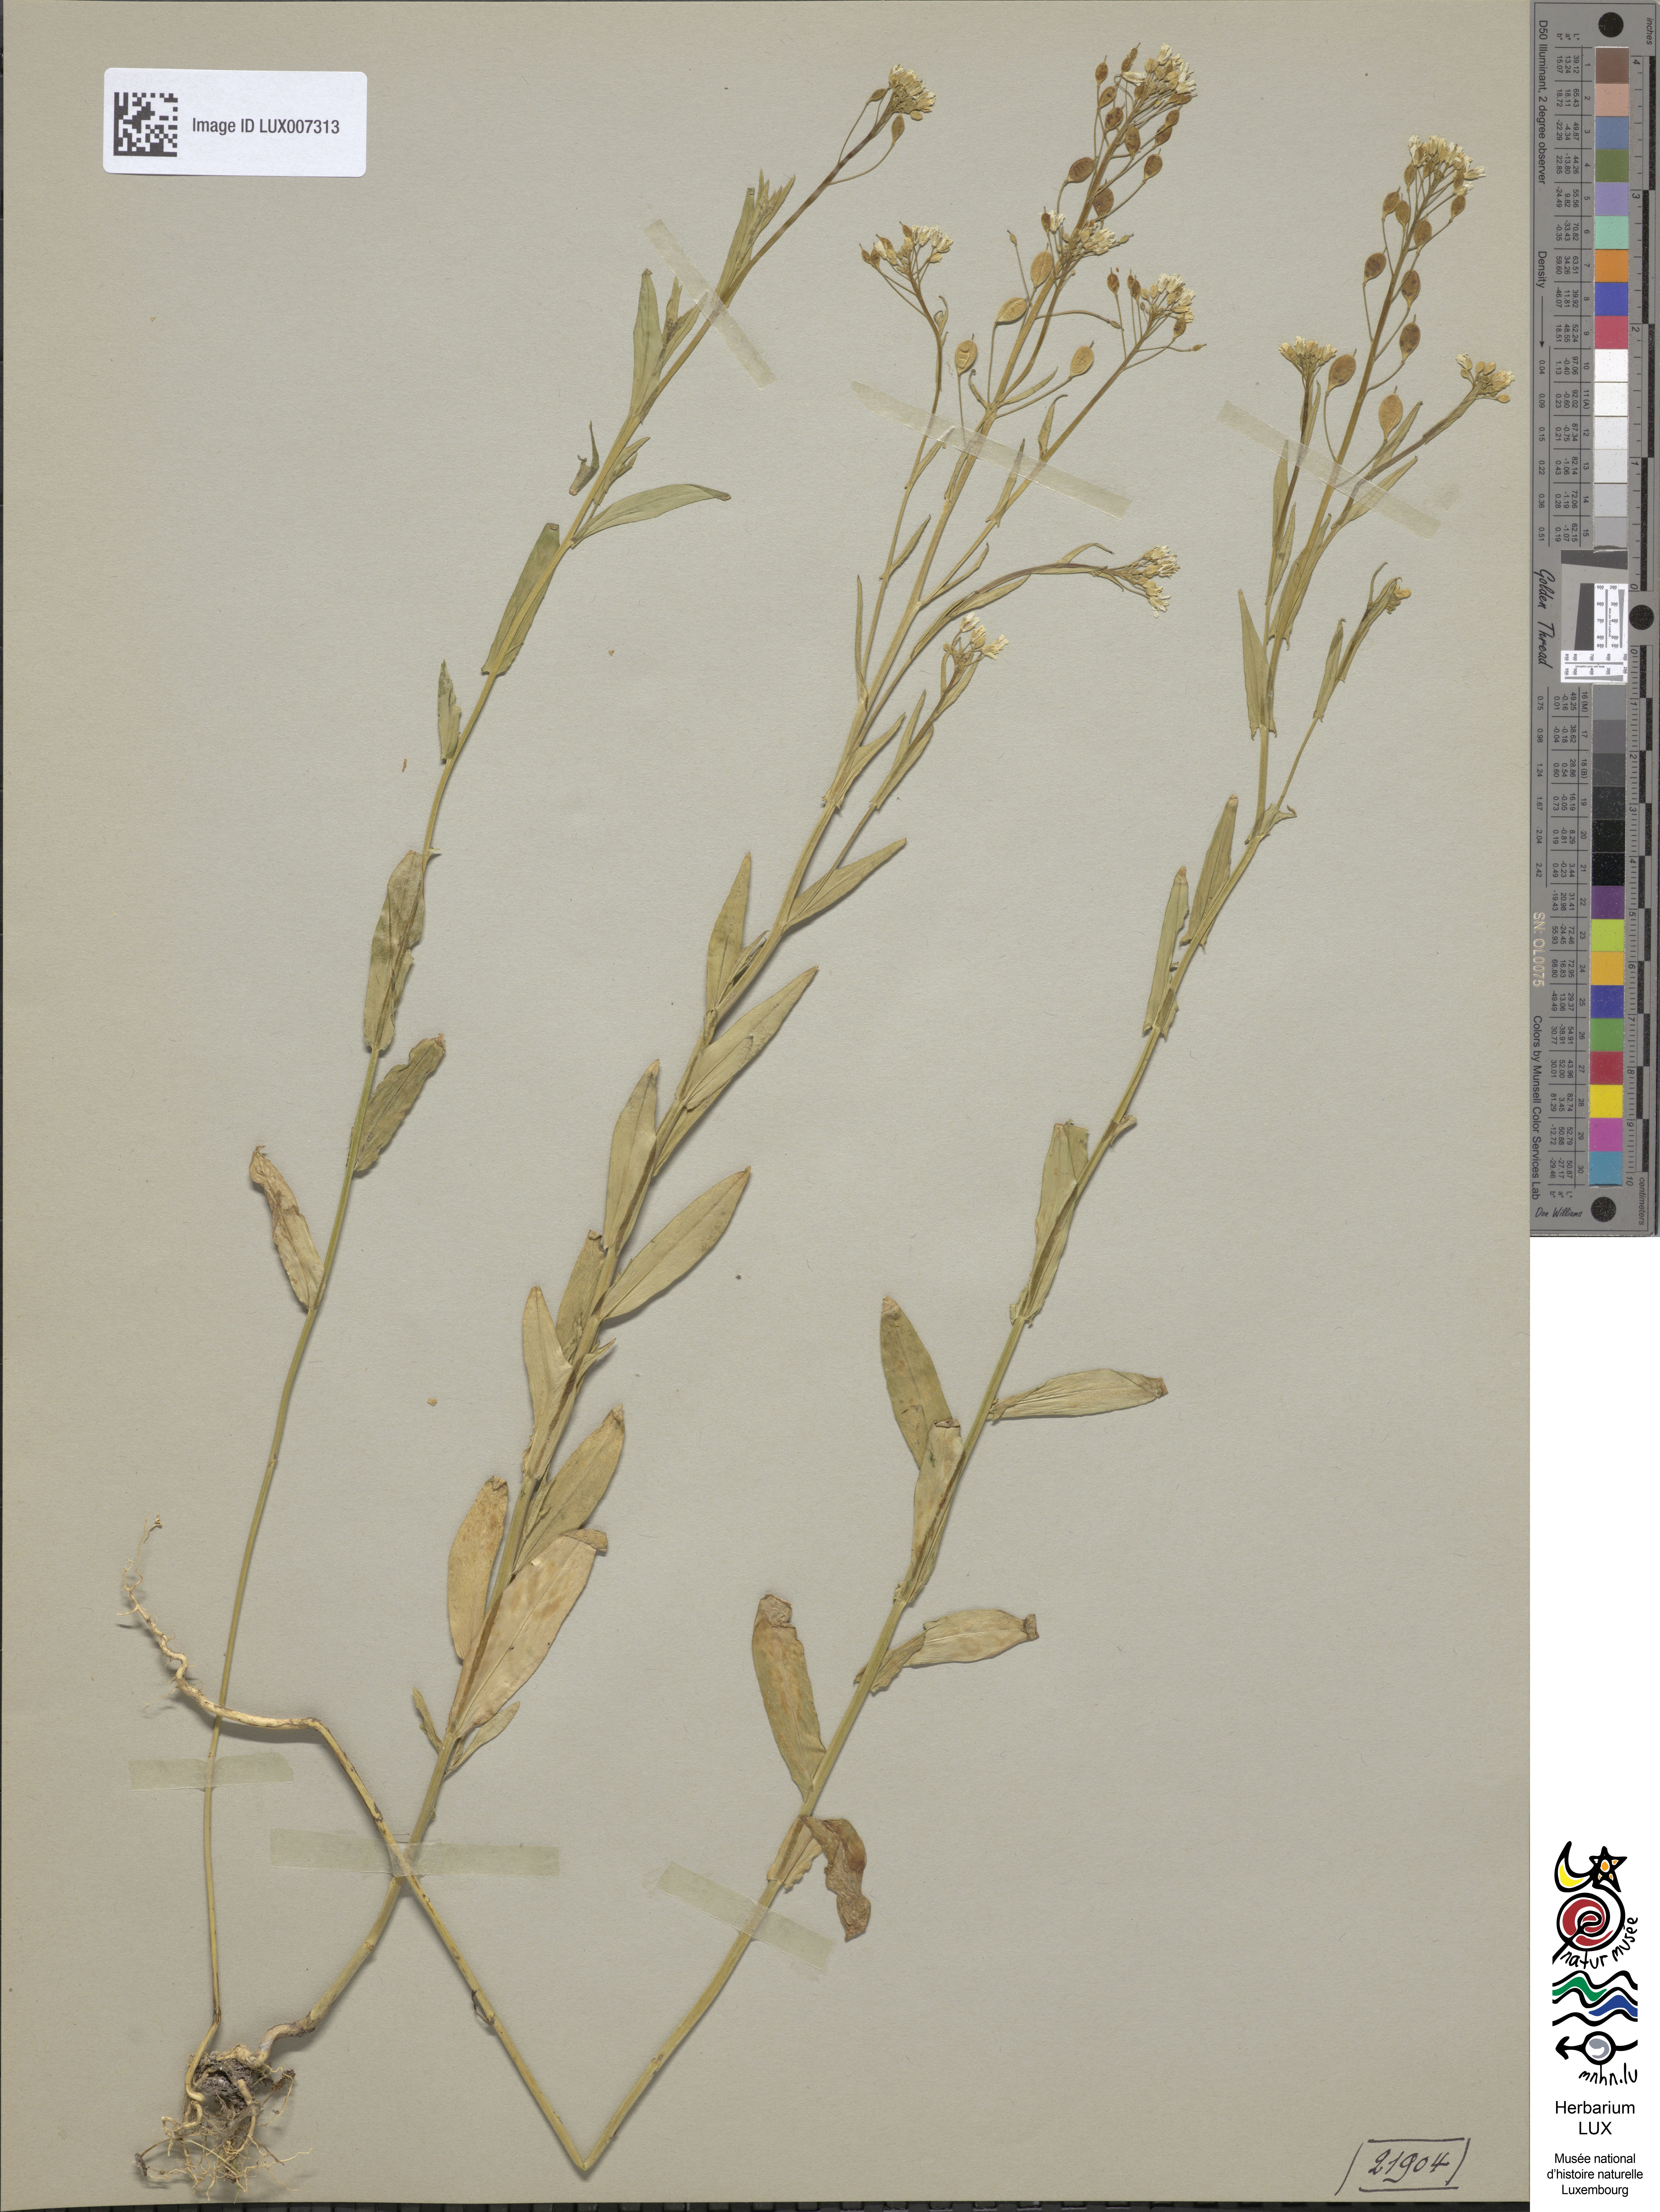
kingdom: Plantae
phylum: Tracheophyta
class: Magnoliopsida
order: Brassicales
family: Brassicaceae
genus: Camelina
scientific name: Camelina sativa
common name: Gold-of-pleasure
